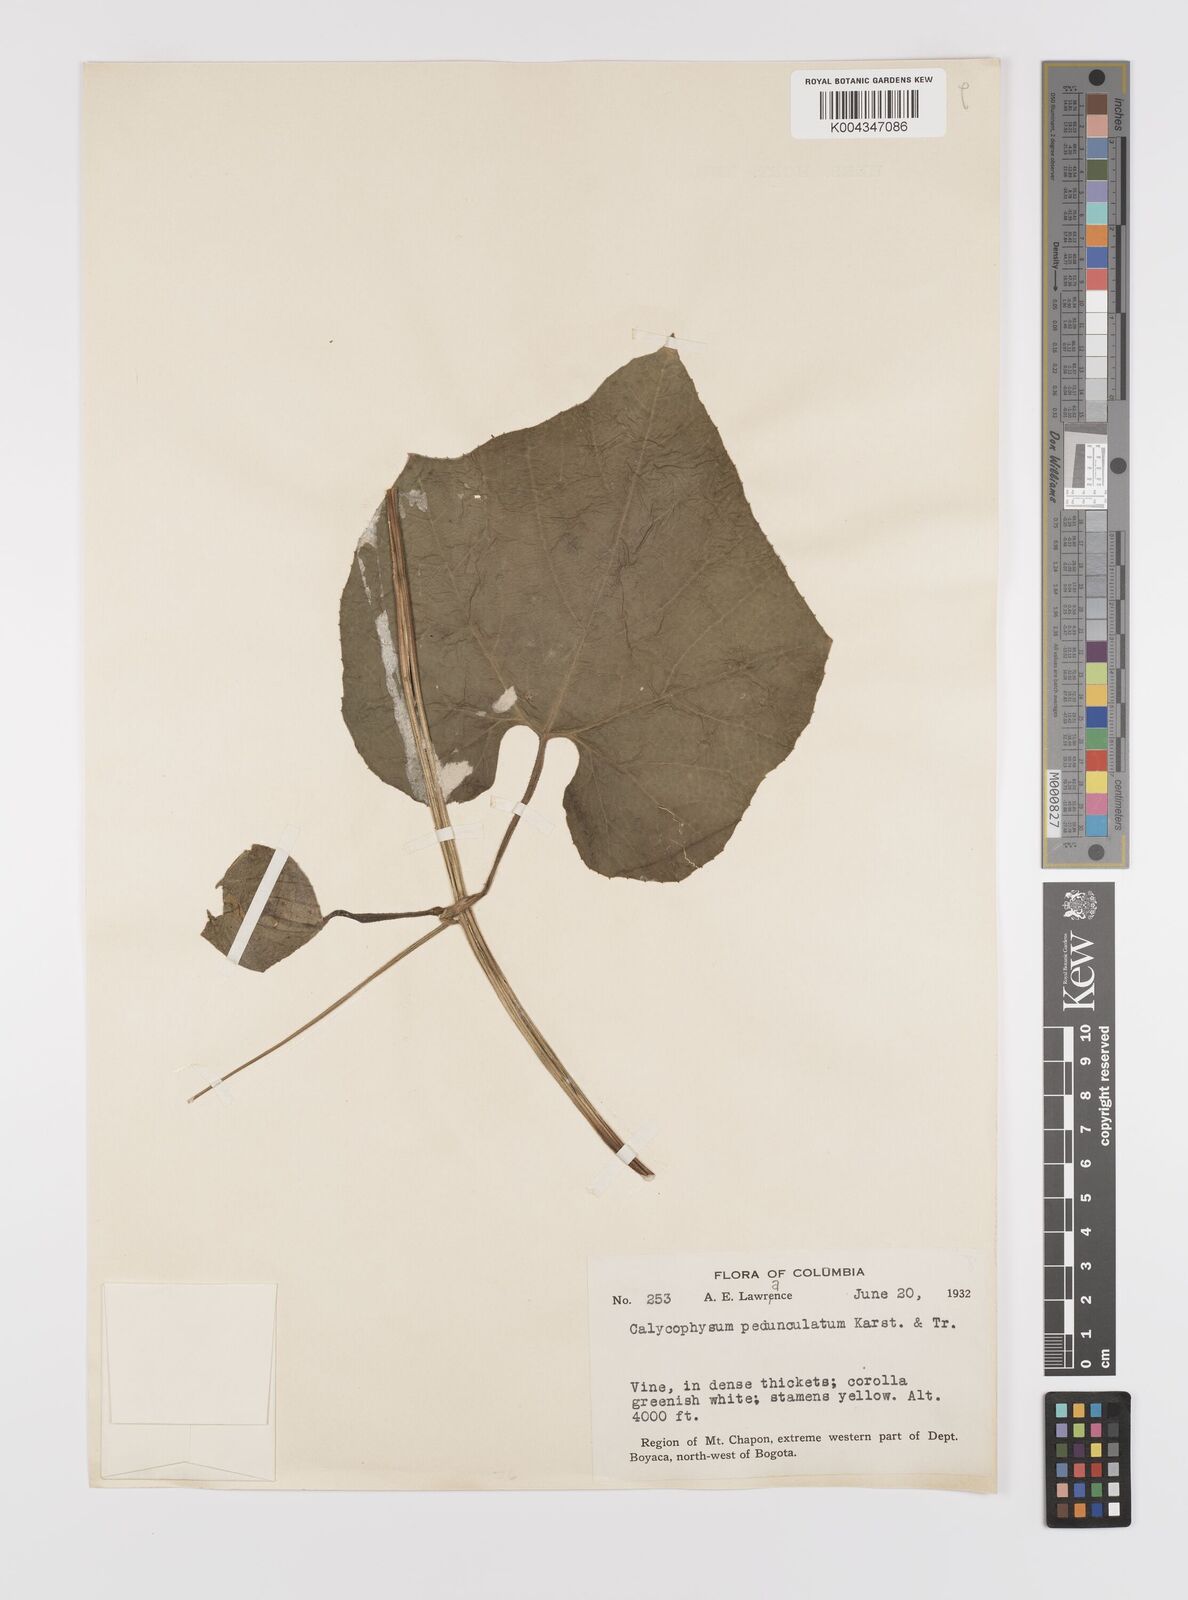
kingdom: Plantae
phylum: Tracheophyta
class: Magnoliopsida
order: Cucurbitales
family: Cucurbitaceae
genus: Calycophysum
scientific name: Calycophysum pedunculatum
